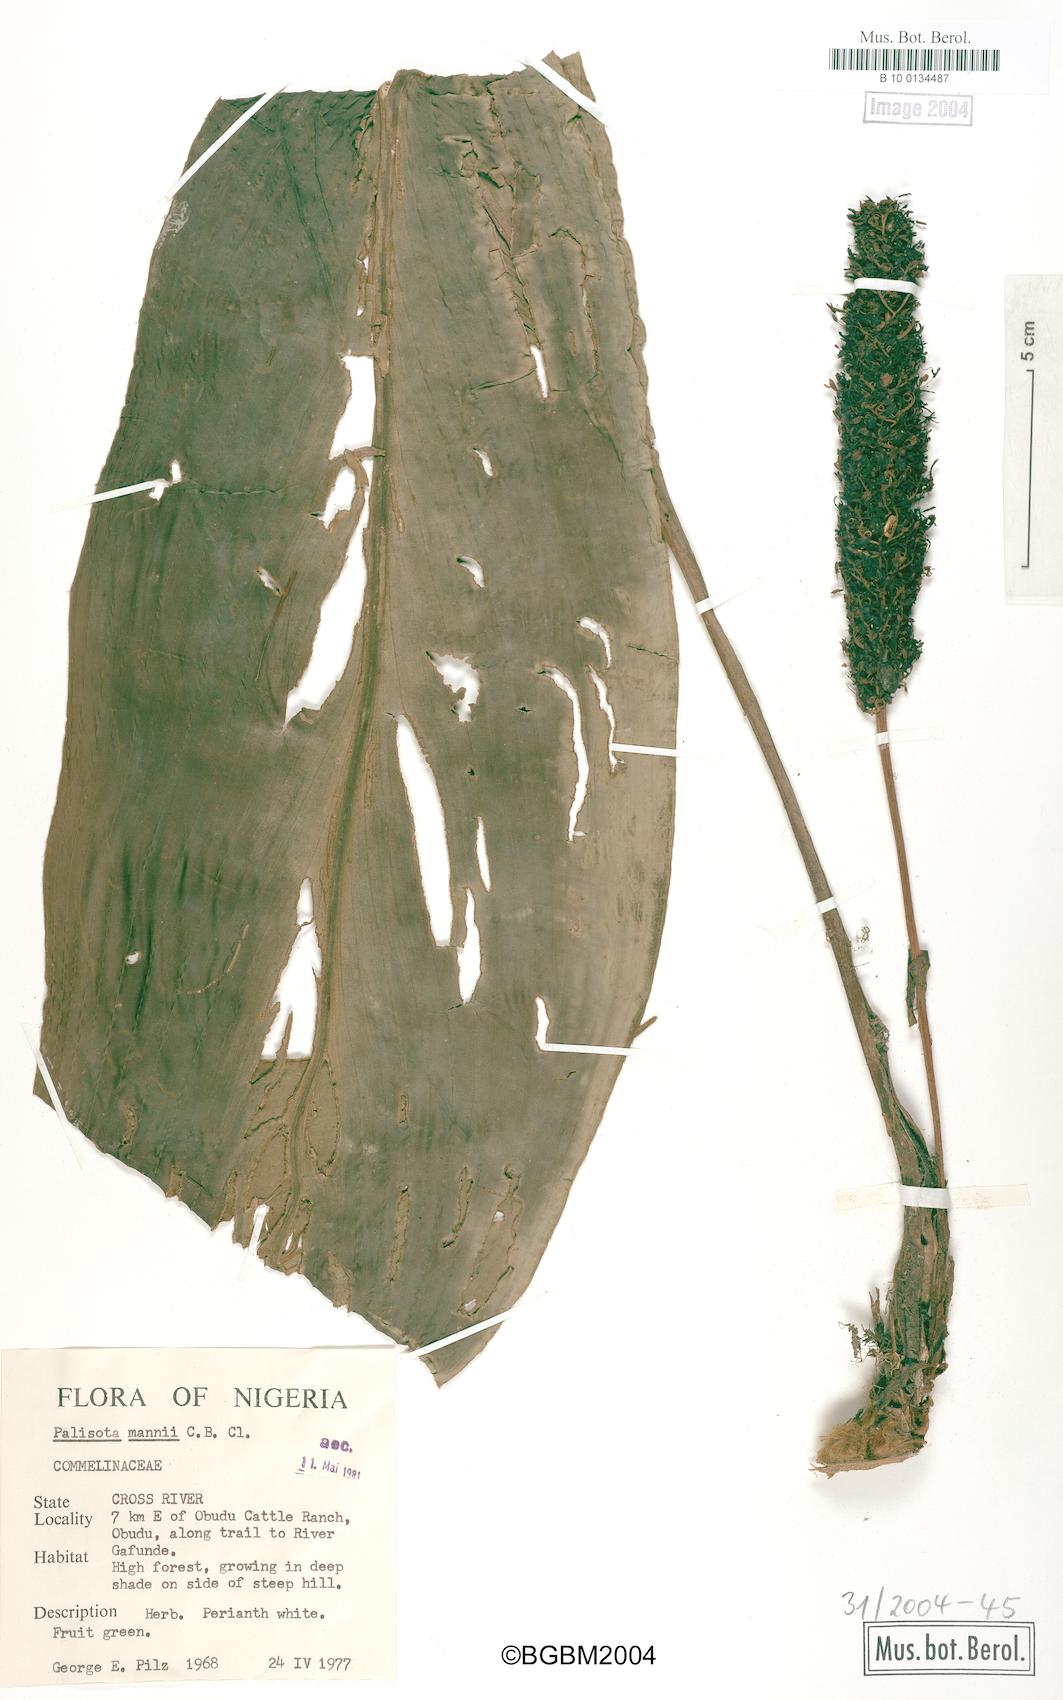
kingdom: Plantae
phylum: Tracheophyta
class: Liliopsida
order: Commelinales
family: Commelinaceae
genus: Palisota
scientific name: Palisota mannii
